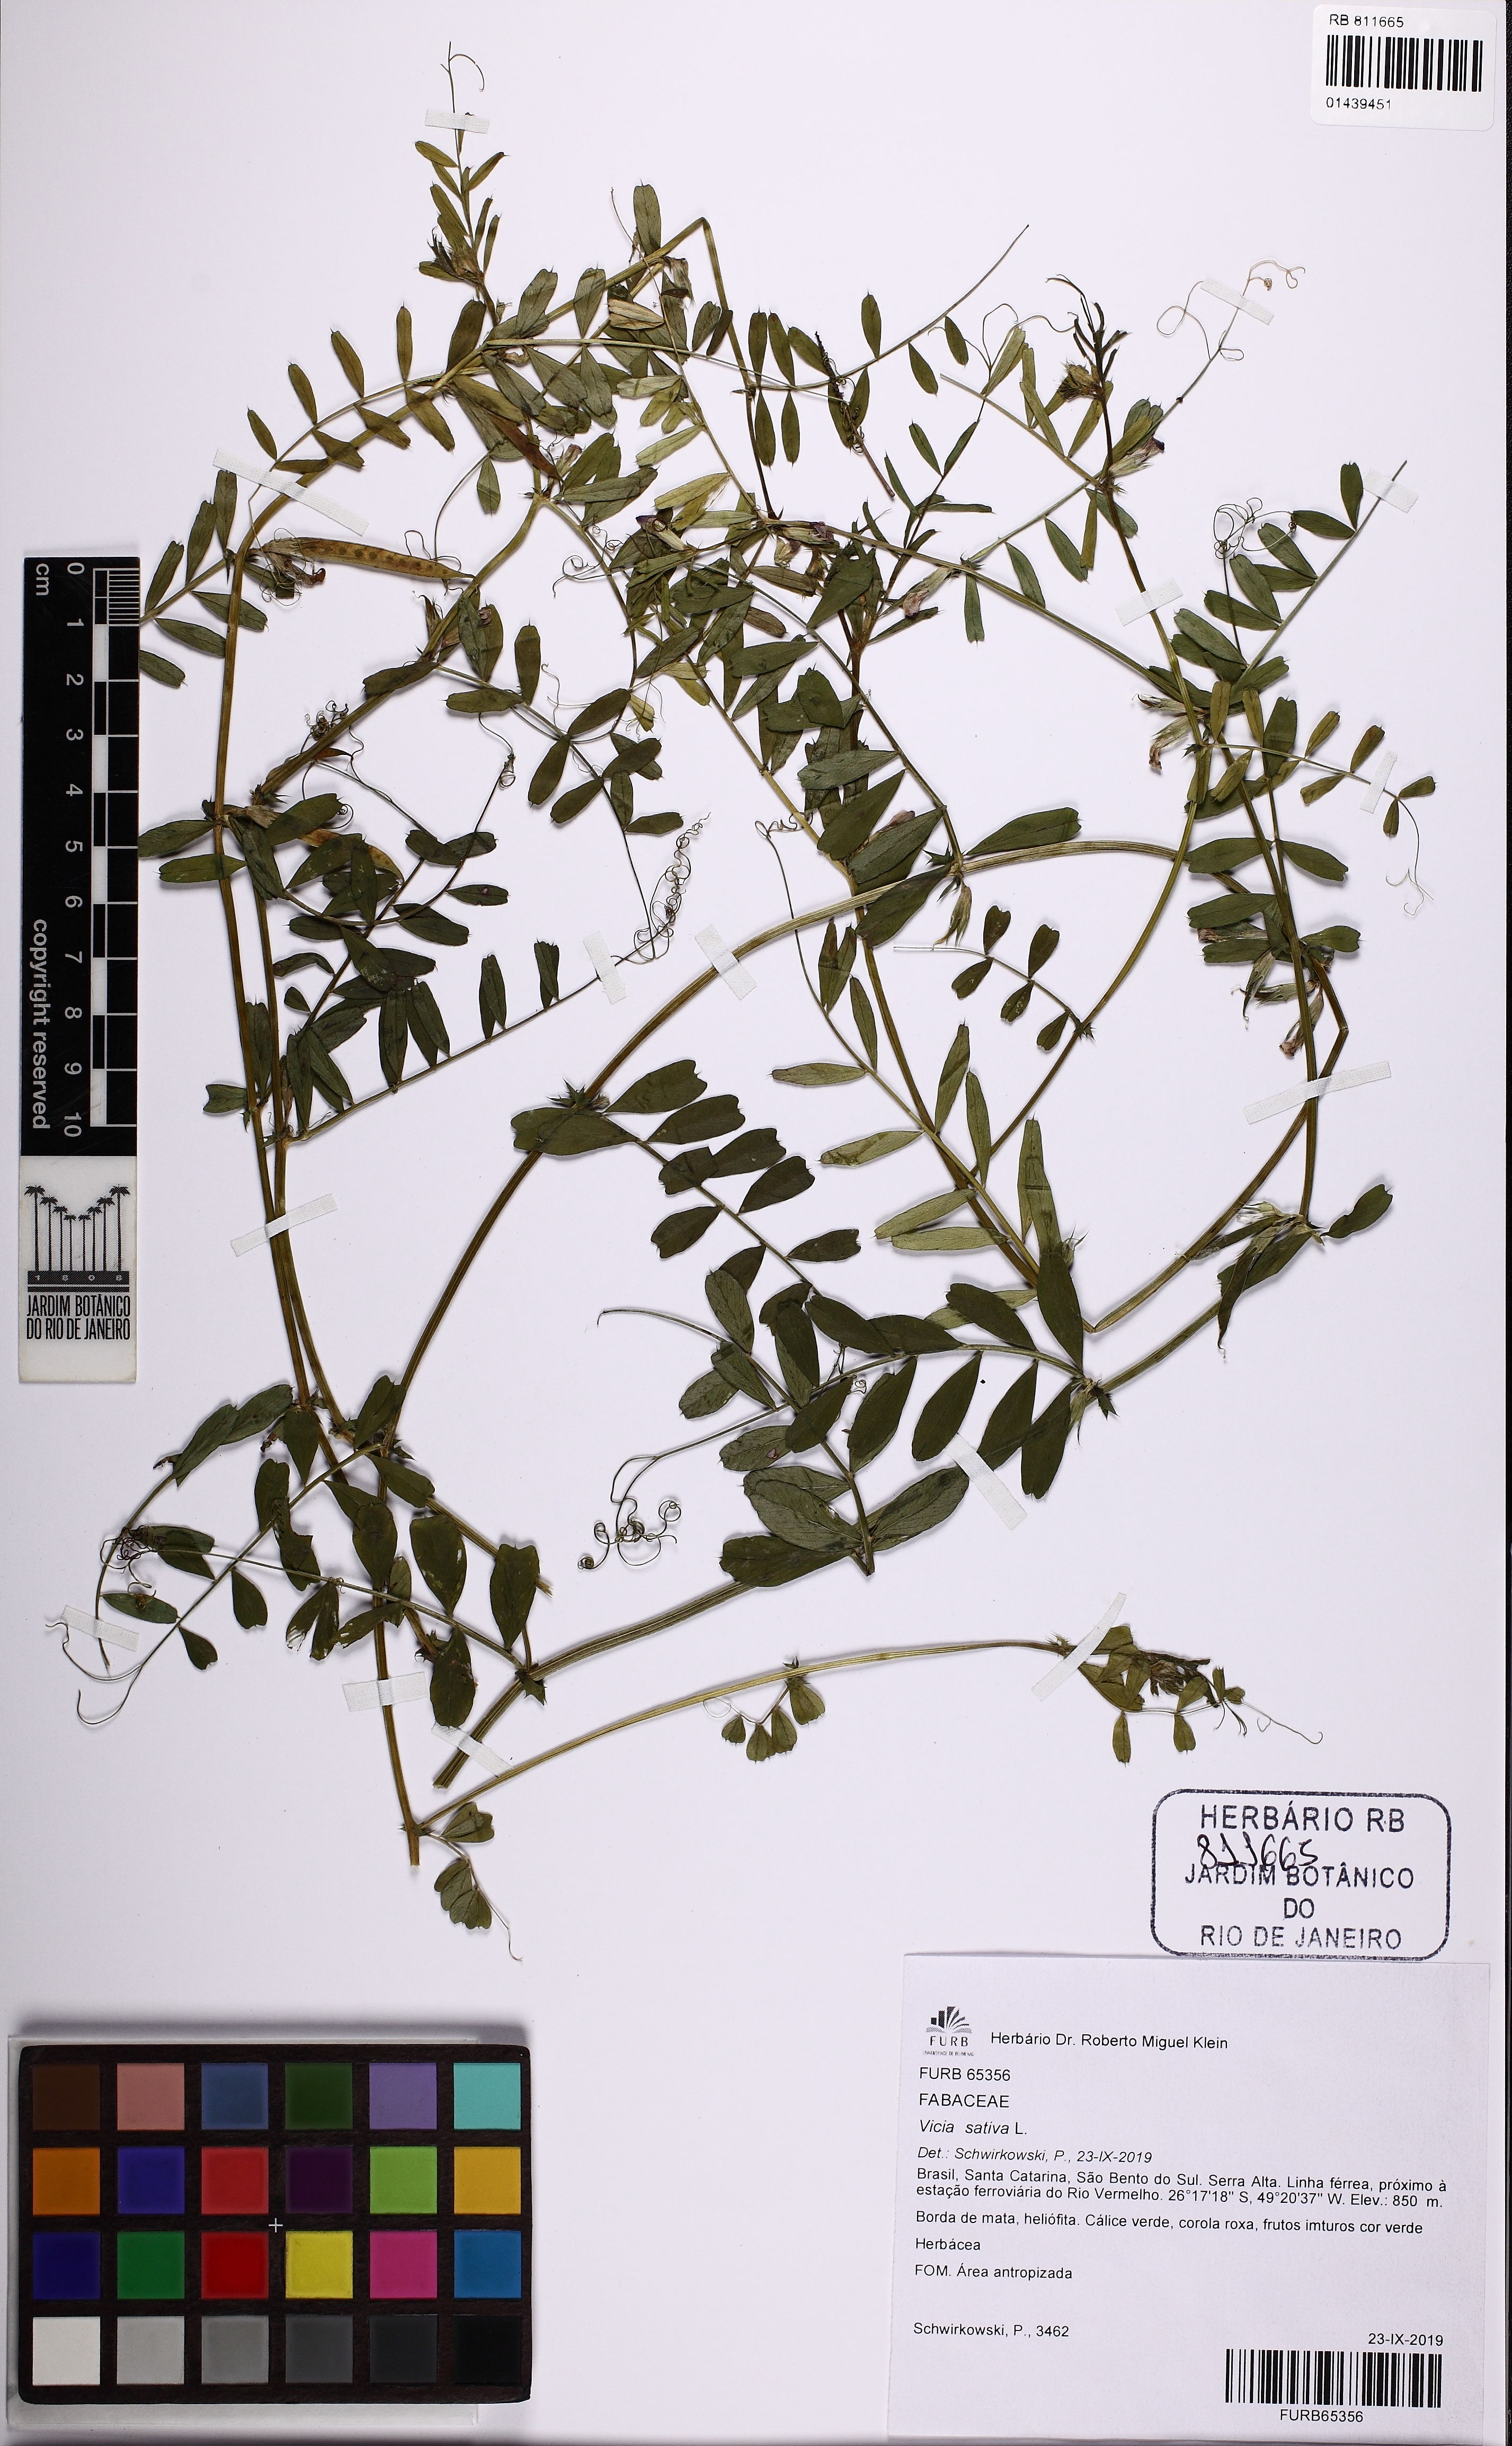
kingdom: Plantae
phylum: Tracheophyta
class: Magnoliopsida
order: Fabales
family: Fabaceae
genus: Vicia
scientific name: Vicia sativa
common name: Garden vetch
